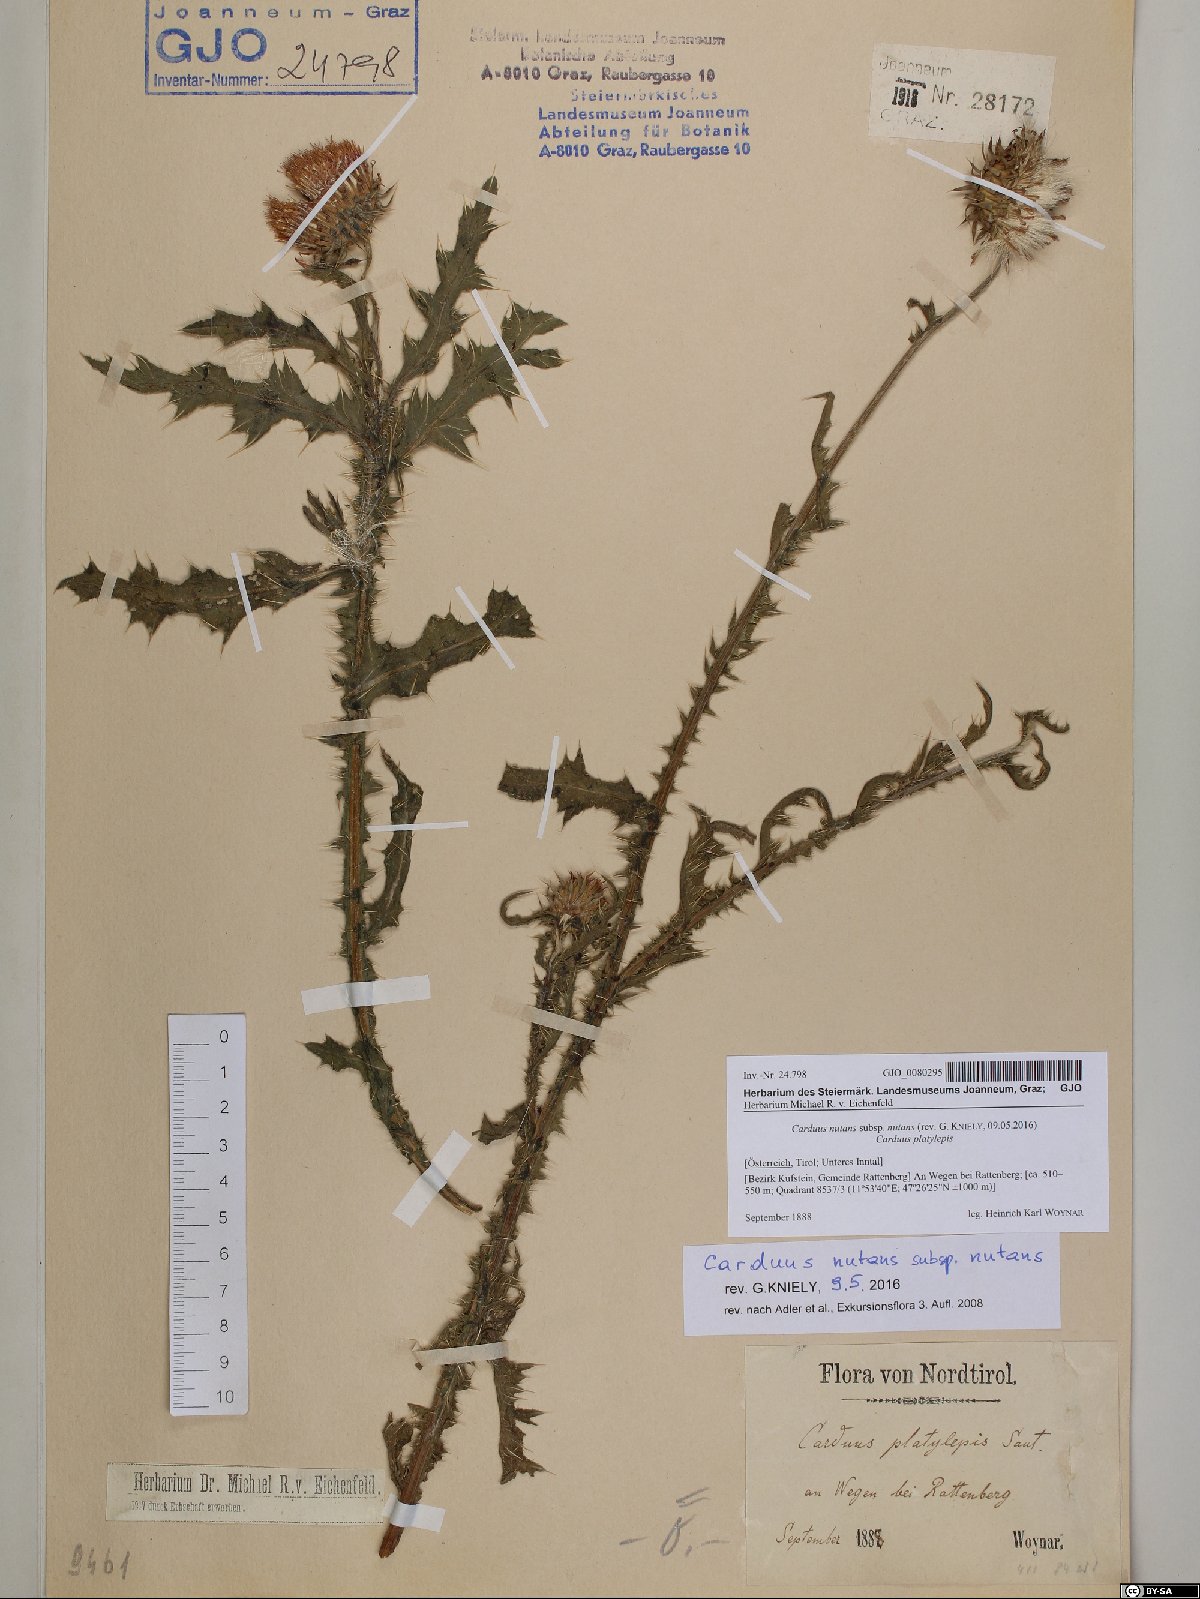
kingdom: Plantae
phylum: Tracheophyta
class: Magnoliopsida
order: Asterales
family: Asteraceae
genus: Carduus
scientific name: Carduus nutans
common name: Musk thistle
